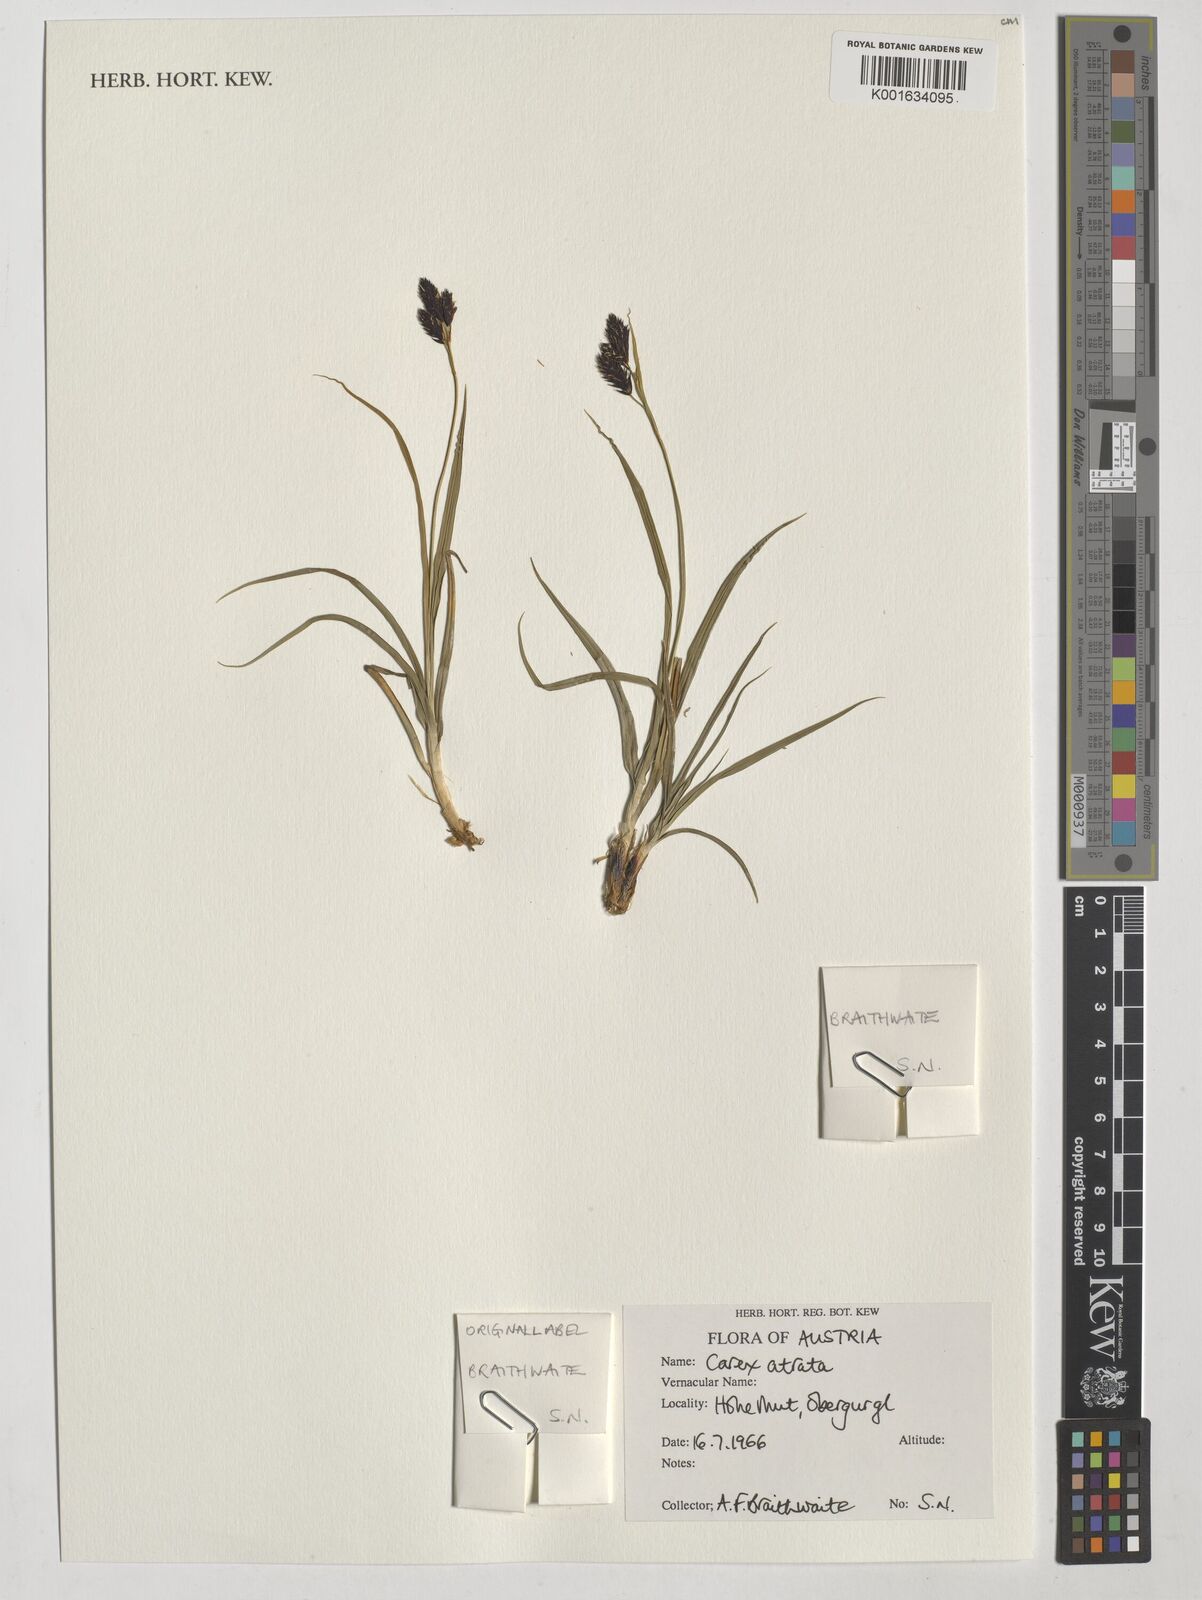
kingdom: Plantae
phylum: Tracheophyta
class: Liliopsida
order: Poales
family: Cyperaceae
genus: Carex
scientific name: Carex atrata
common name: Black alpine sedge
